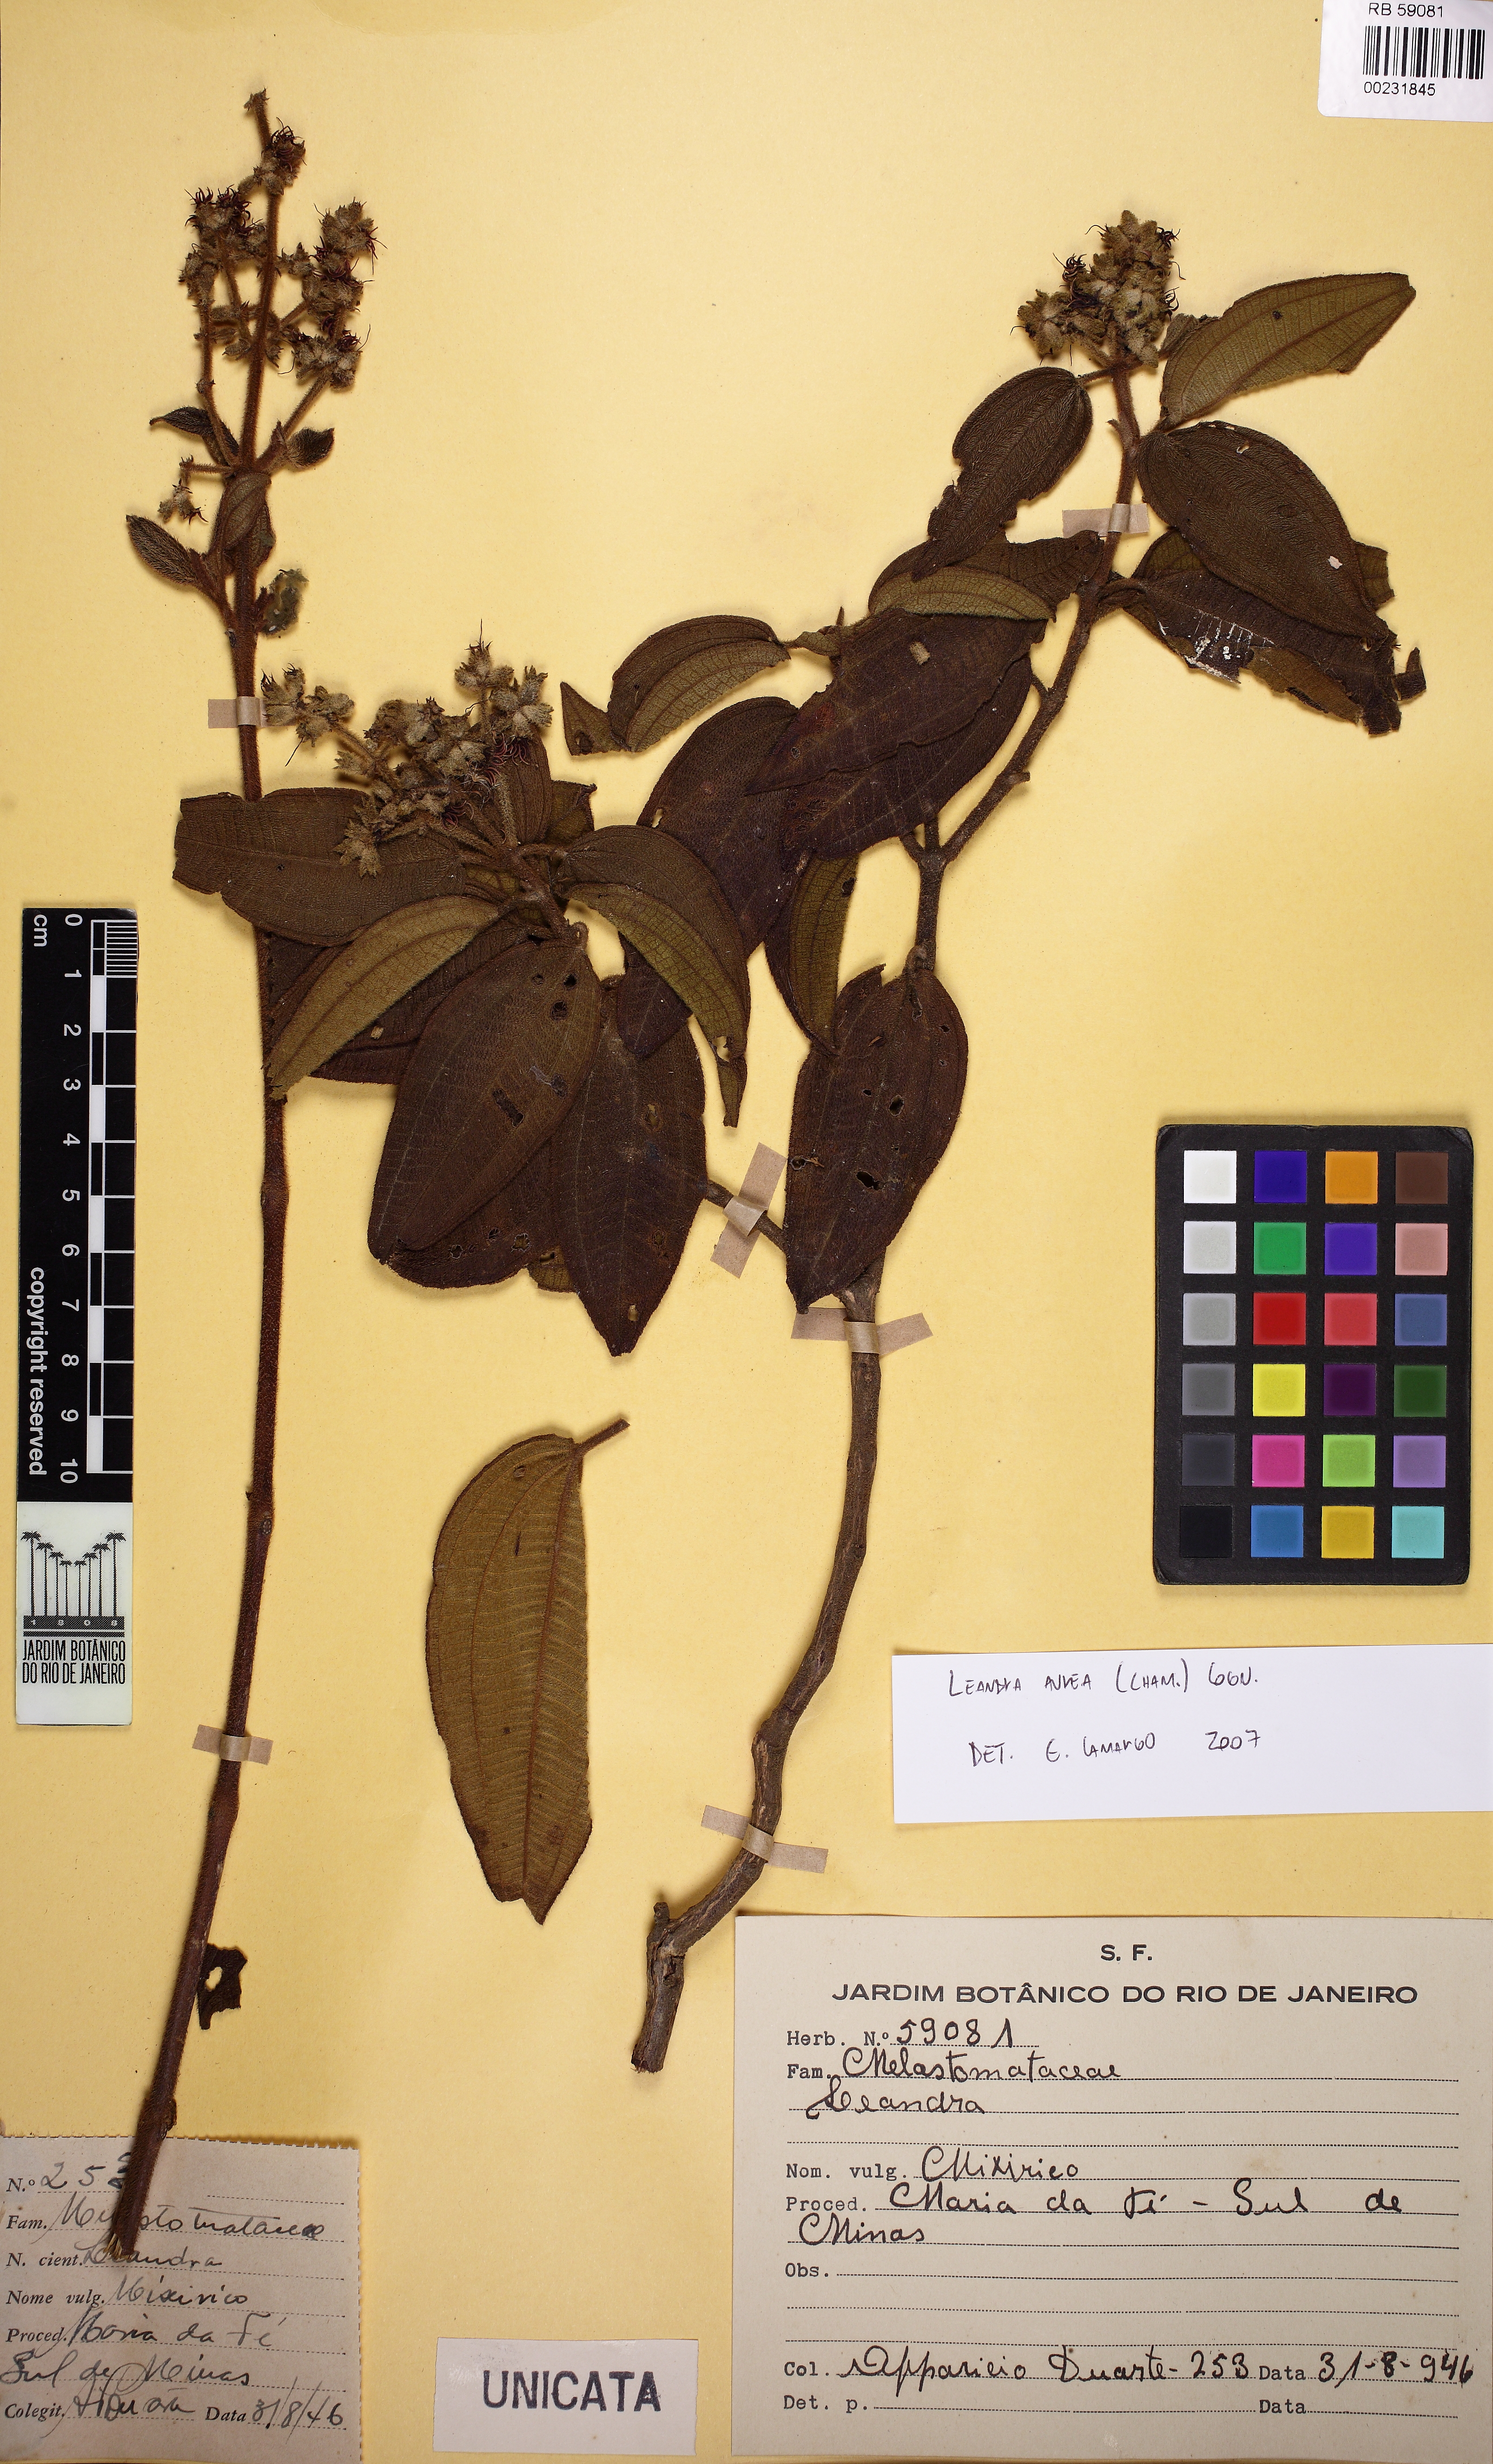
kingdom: Plantae
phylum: Tracheophyta
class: Magnoliopsida
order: Myrtales
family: Melastomataceae
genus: Miconia
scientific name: Miconia auricoma
